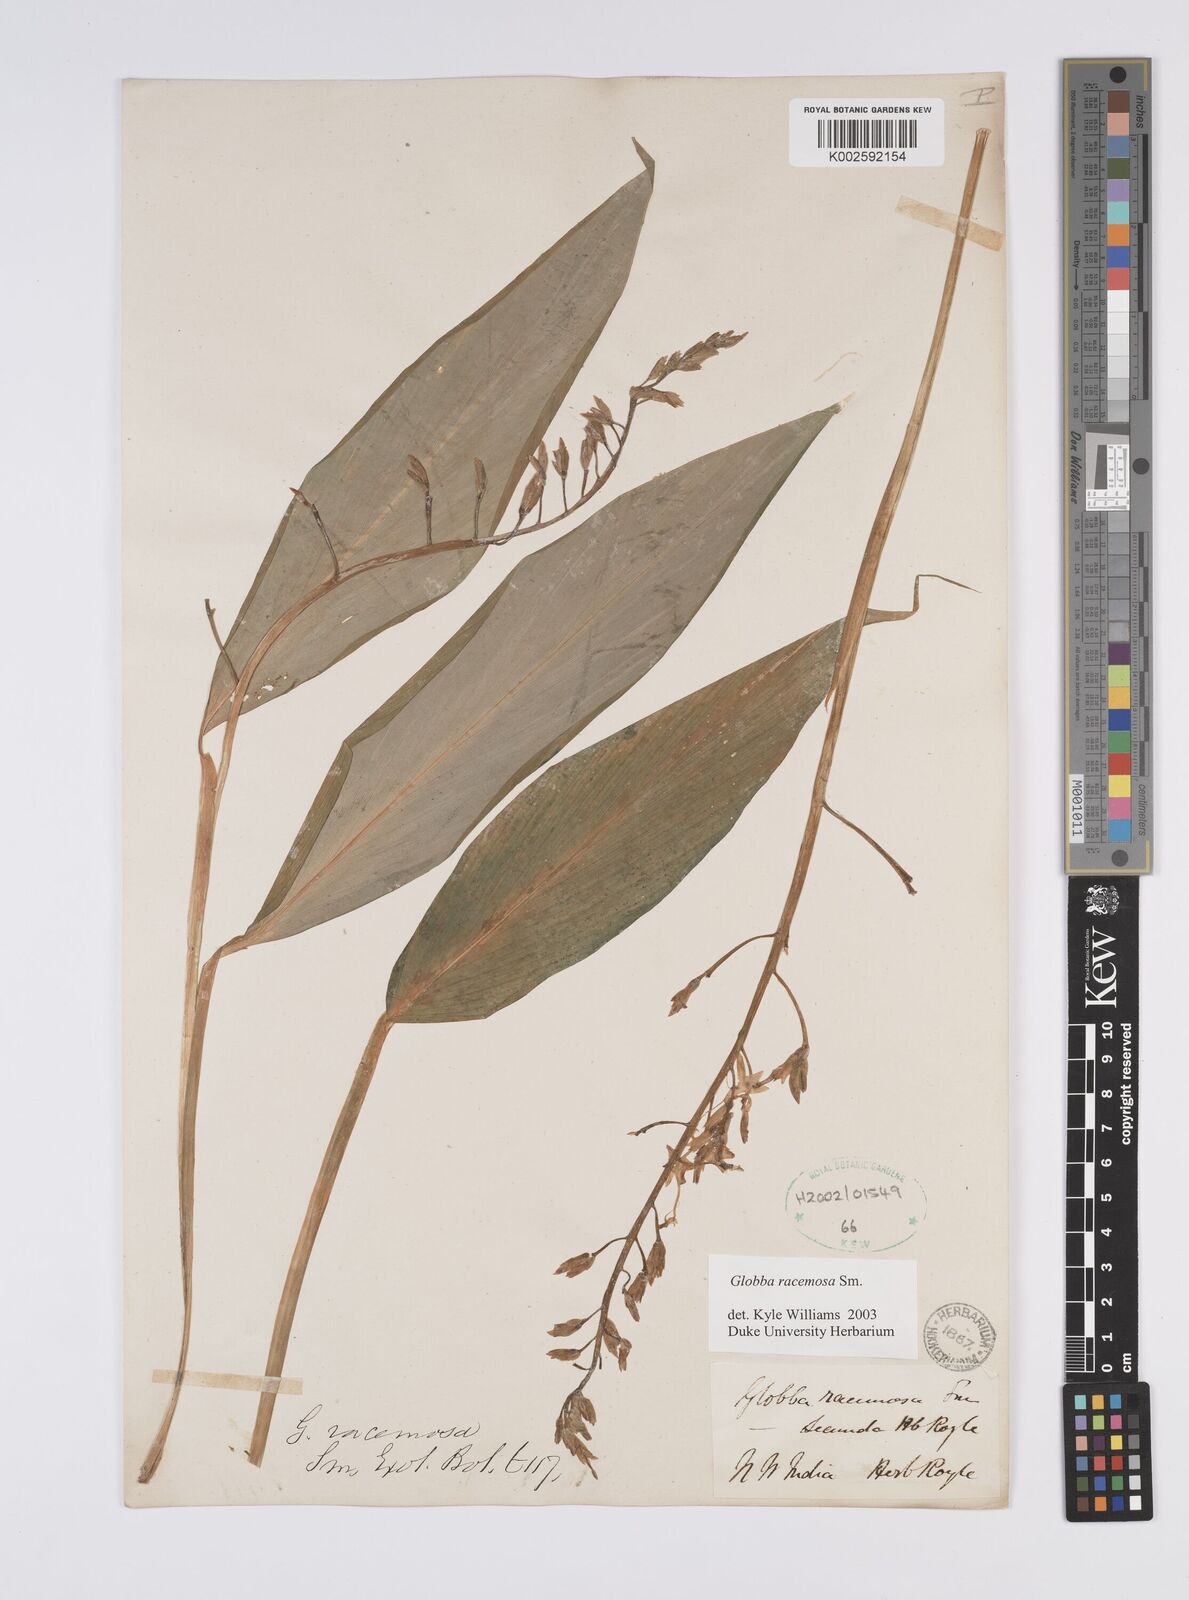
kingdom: Plantae
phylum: Tracheophyta
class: Liliopsida
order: Zingiberales
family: Zingiberaceae
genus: Globba
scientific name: Globba racemosa
